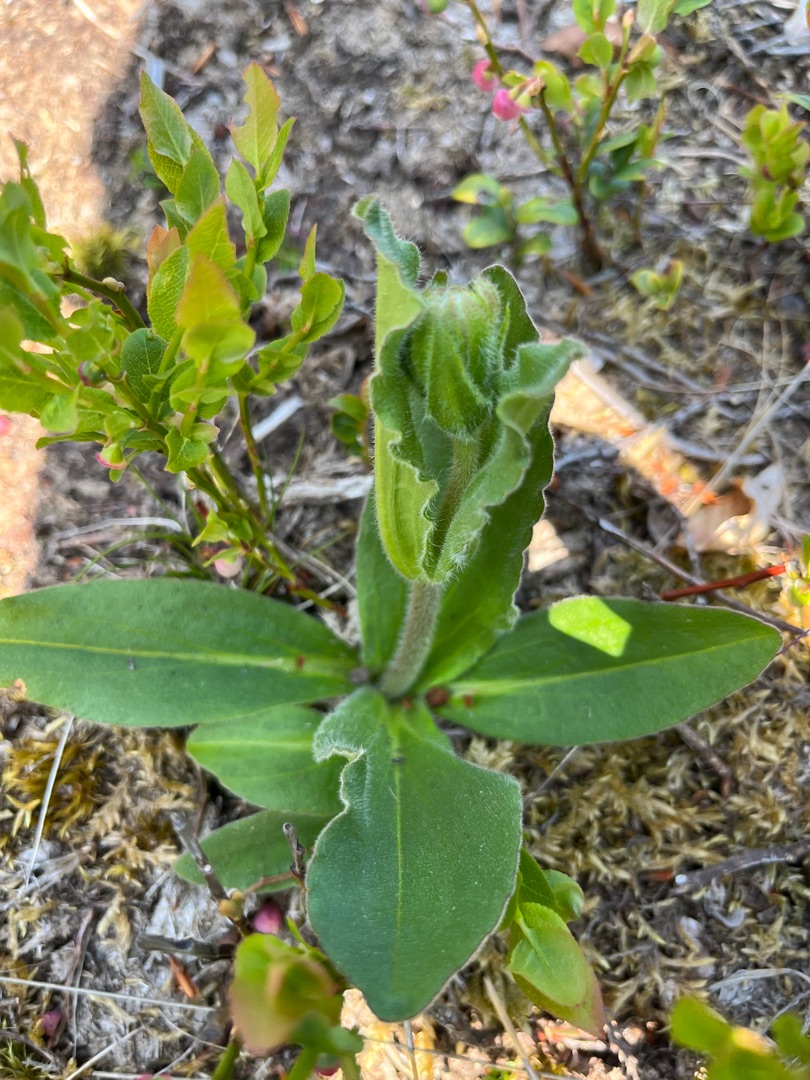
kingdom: Plantae
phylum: Tracheophyta
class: Magnoliopsida
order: Asterales
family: Asteraceae
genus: Arnica
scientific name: Arnica montana
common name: Guldblomme
